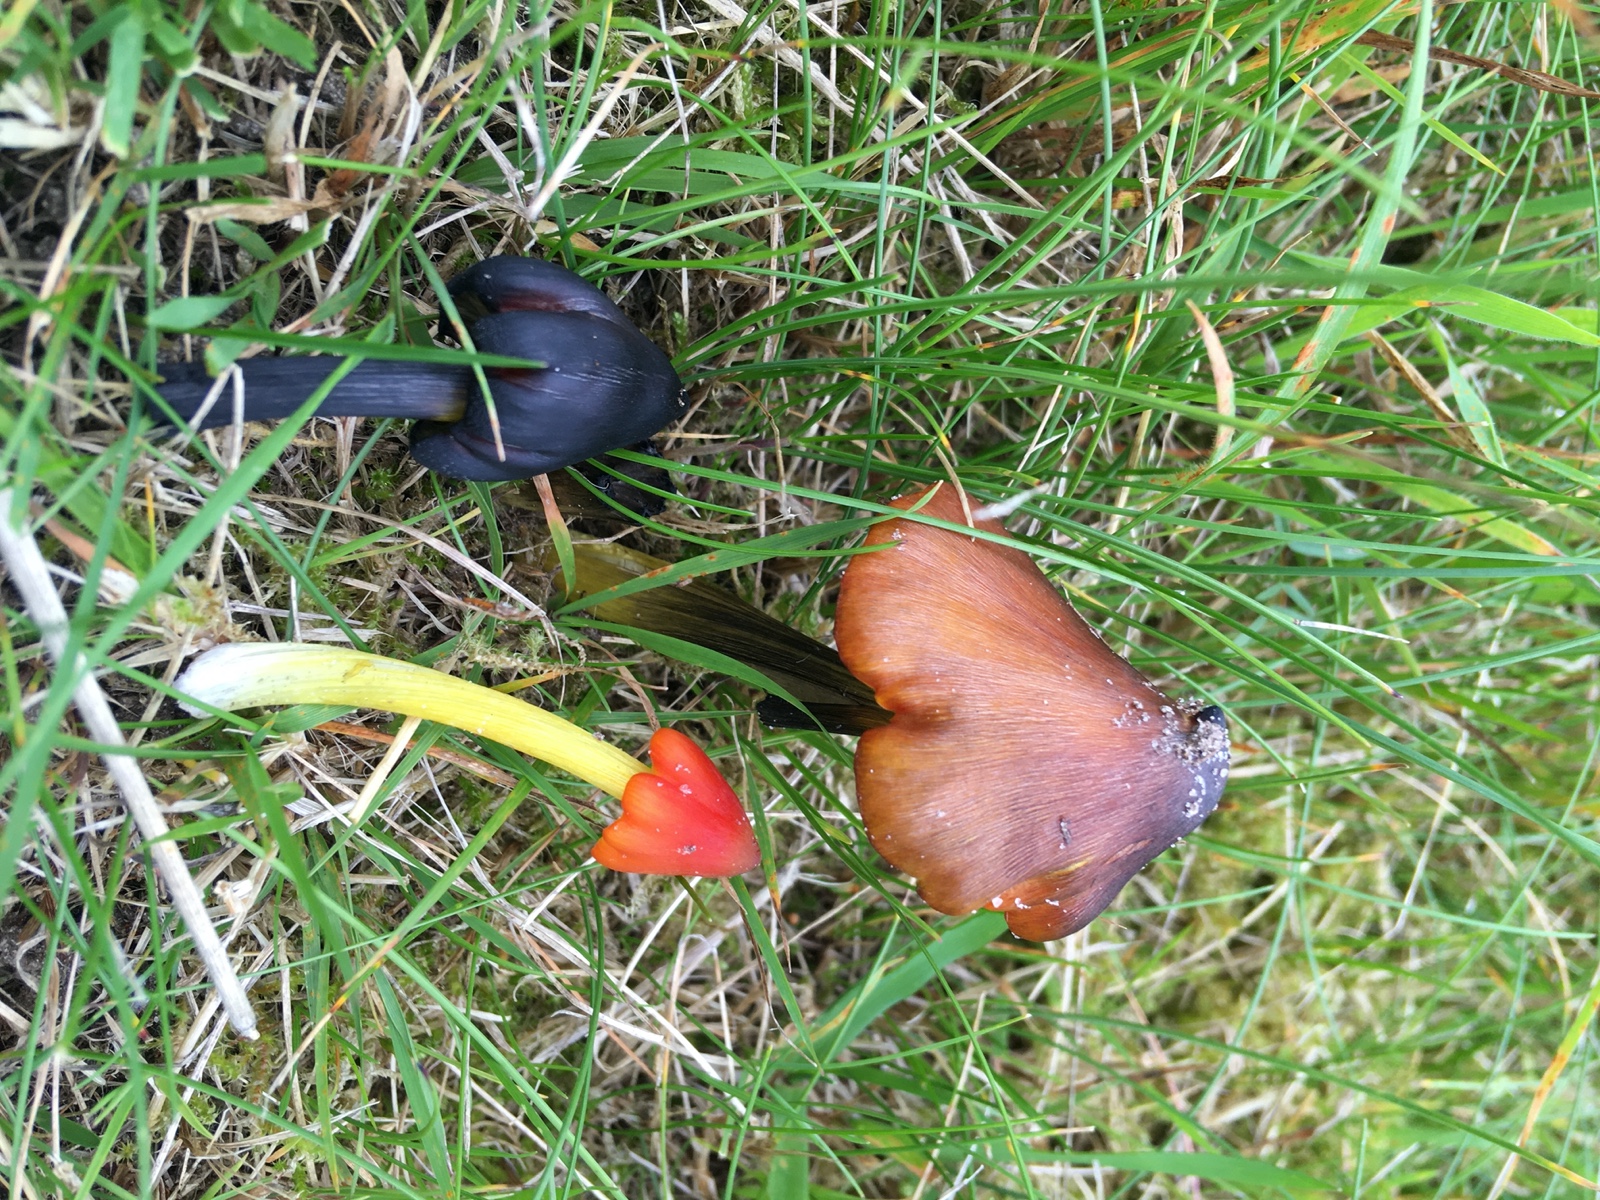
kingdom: Fungi
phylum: Basidiomycota
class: Agaricomycetes
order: Agaricales
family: Hygrophoraceae
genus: Hygrocybe
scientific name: Hygrocybe conica
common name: kegle-vokshat
